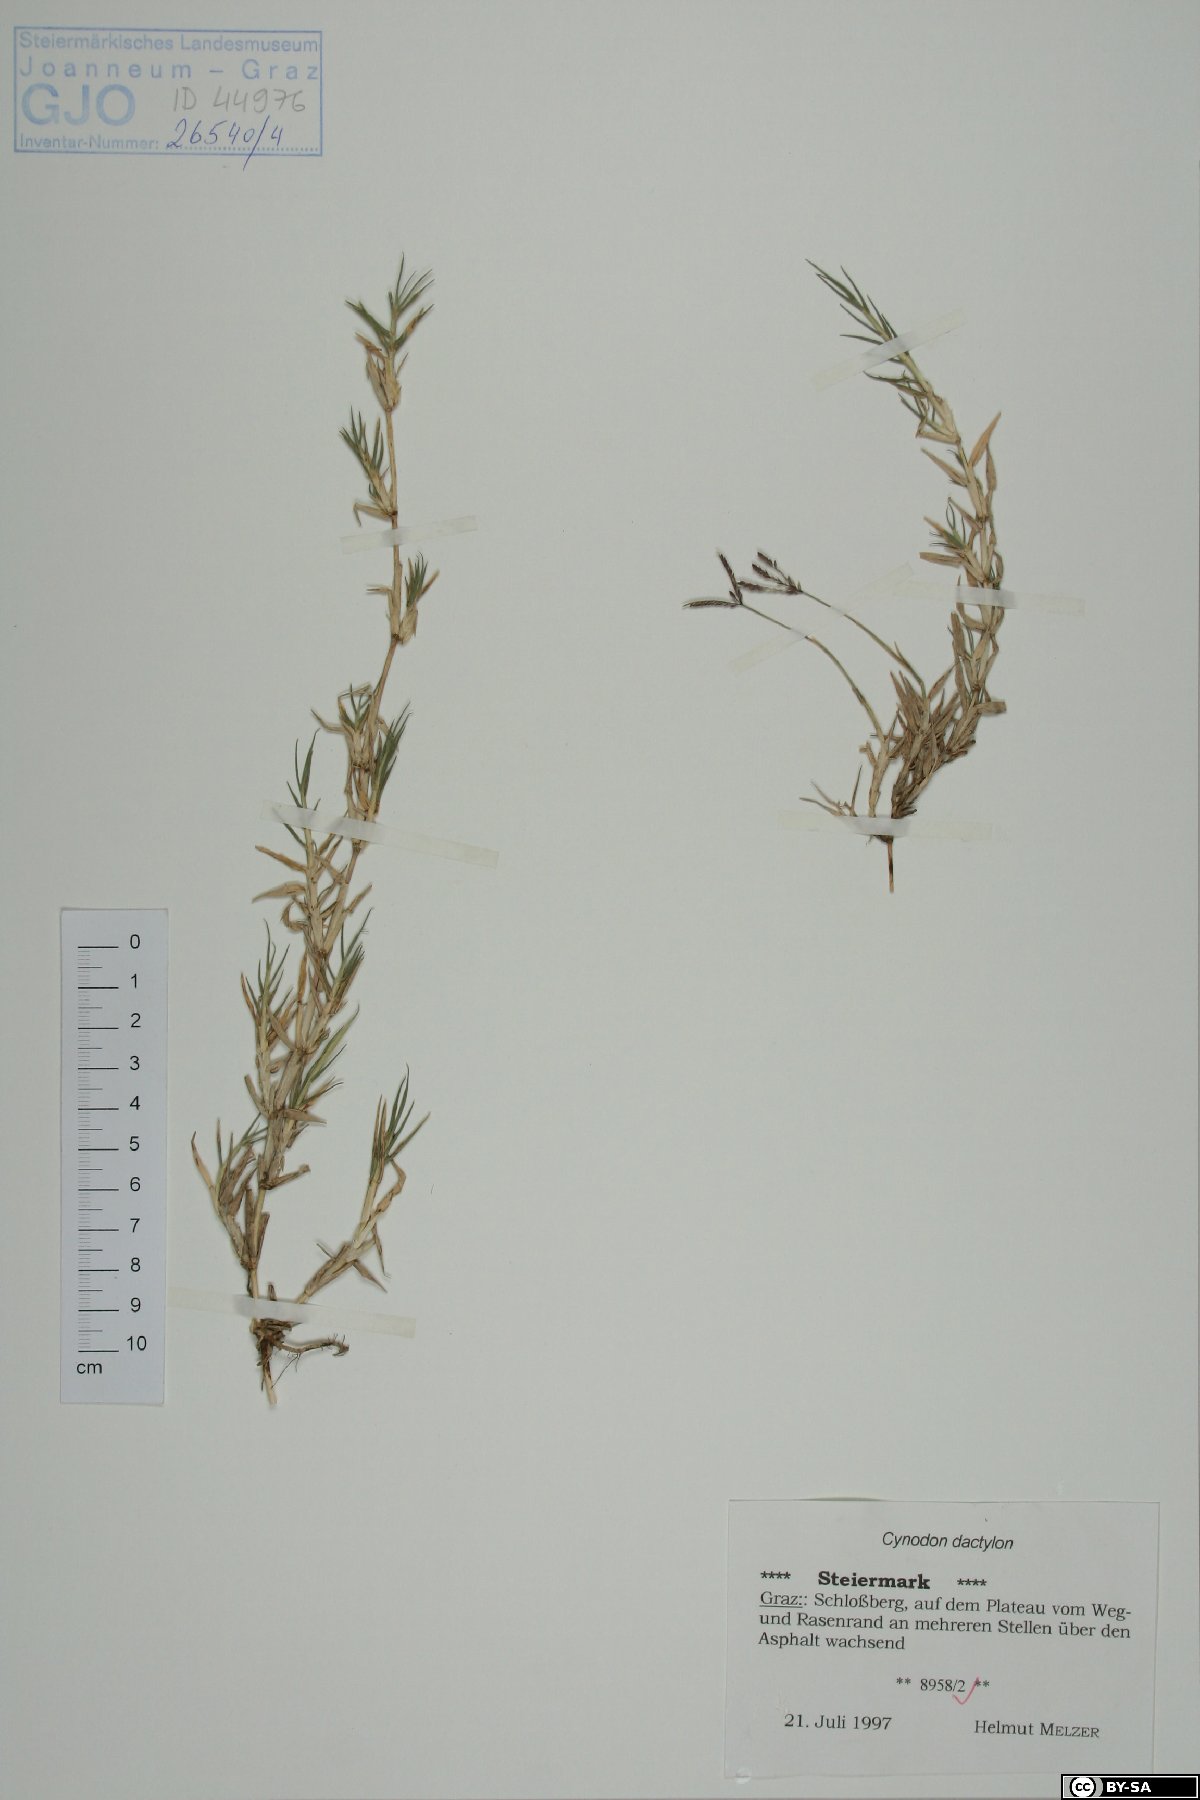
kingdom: Plantae
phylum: Tracheophyta
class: Liliopsida
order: Poales
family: Poaceae
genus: Cynodon
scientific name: Cynodon dactylon
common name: Bermuda grass
